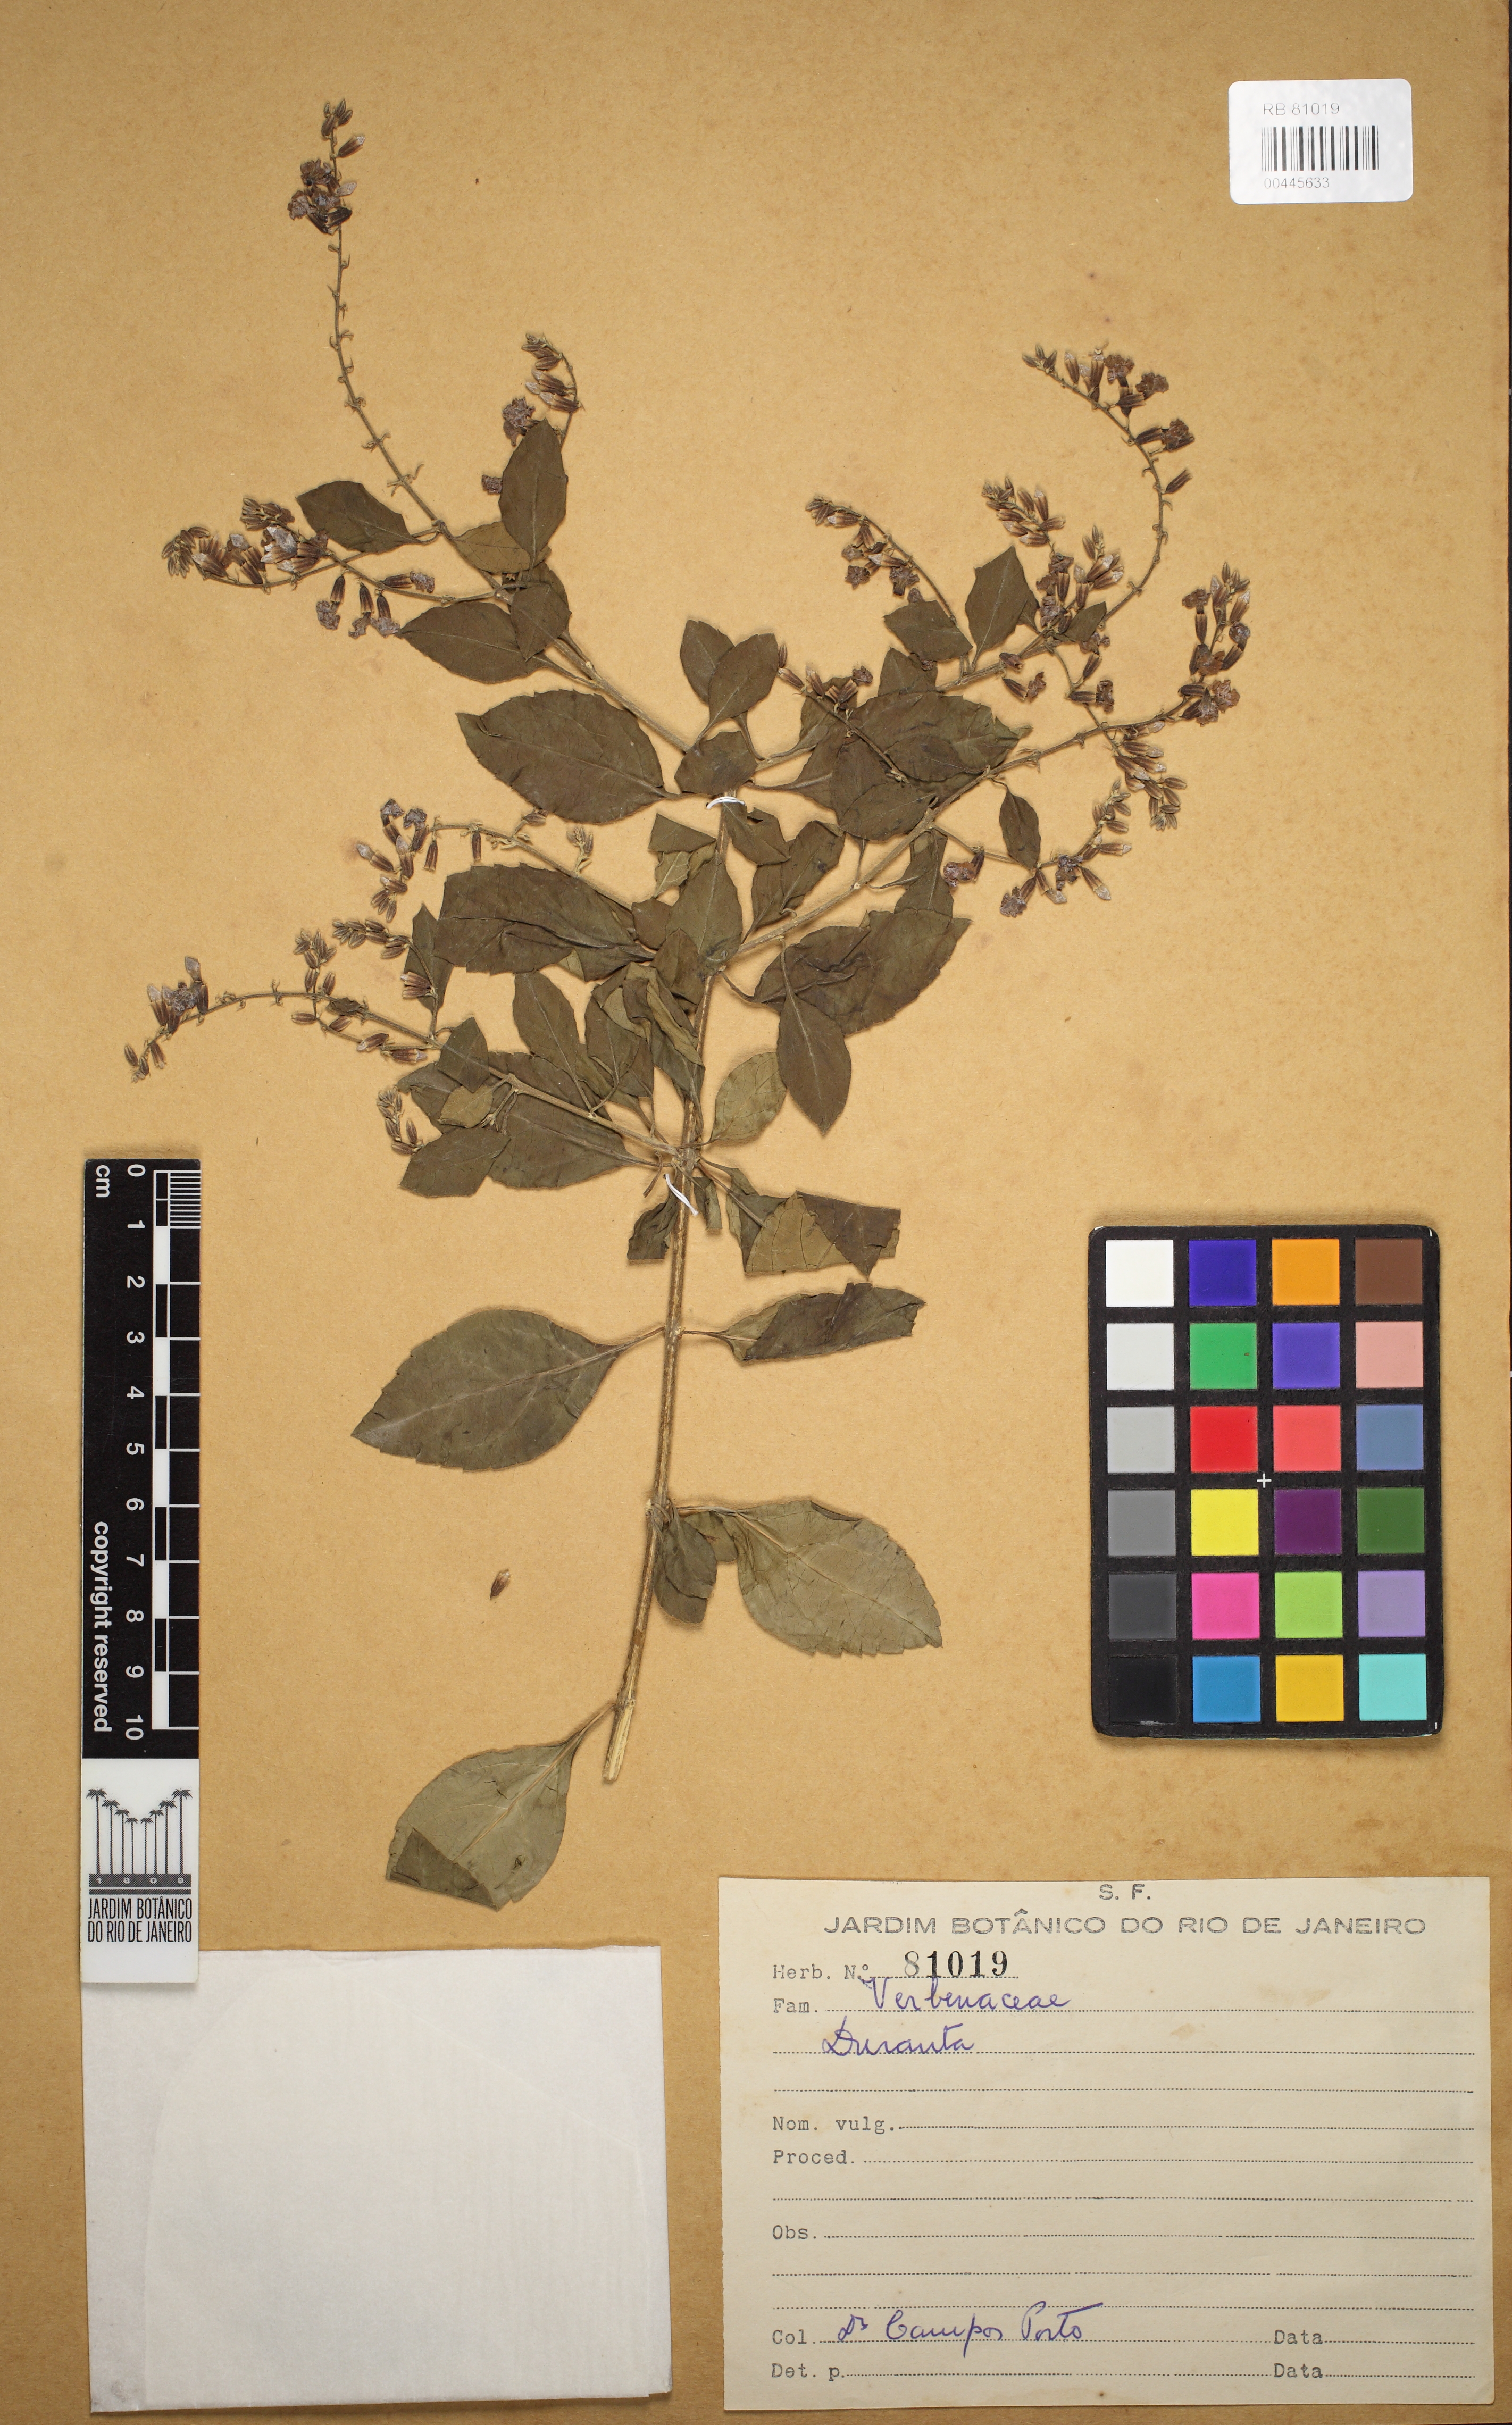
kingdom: Plantae
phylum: Tracheophyta
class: Magnoliopsida
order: Lamiales
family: Verbenaceae
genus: Duranta
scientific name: Duranta
